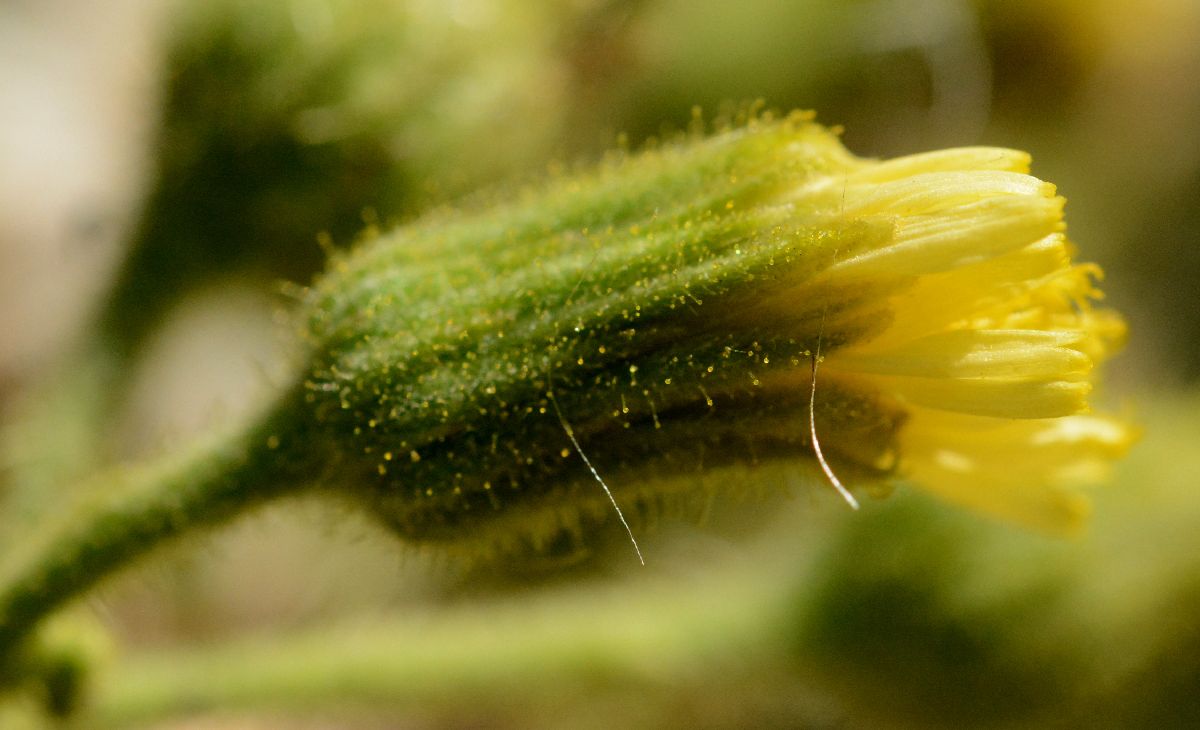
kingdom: Plantae
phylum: Tracheophyta
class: Magnoliopsida
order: Asterales
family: Asteraceae
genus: Sonchus
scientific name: Sonchus palustris
